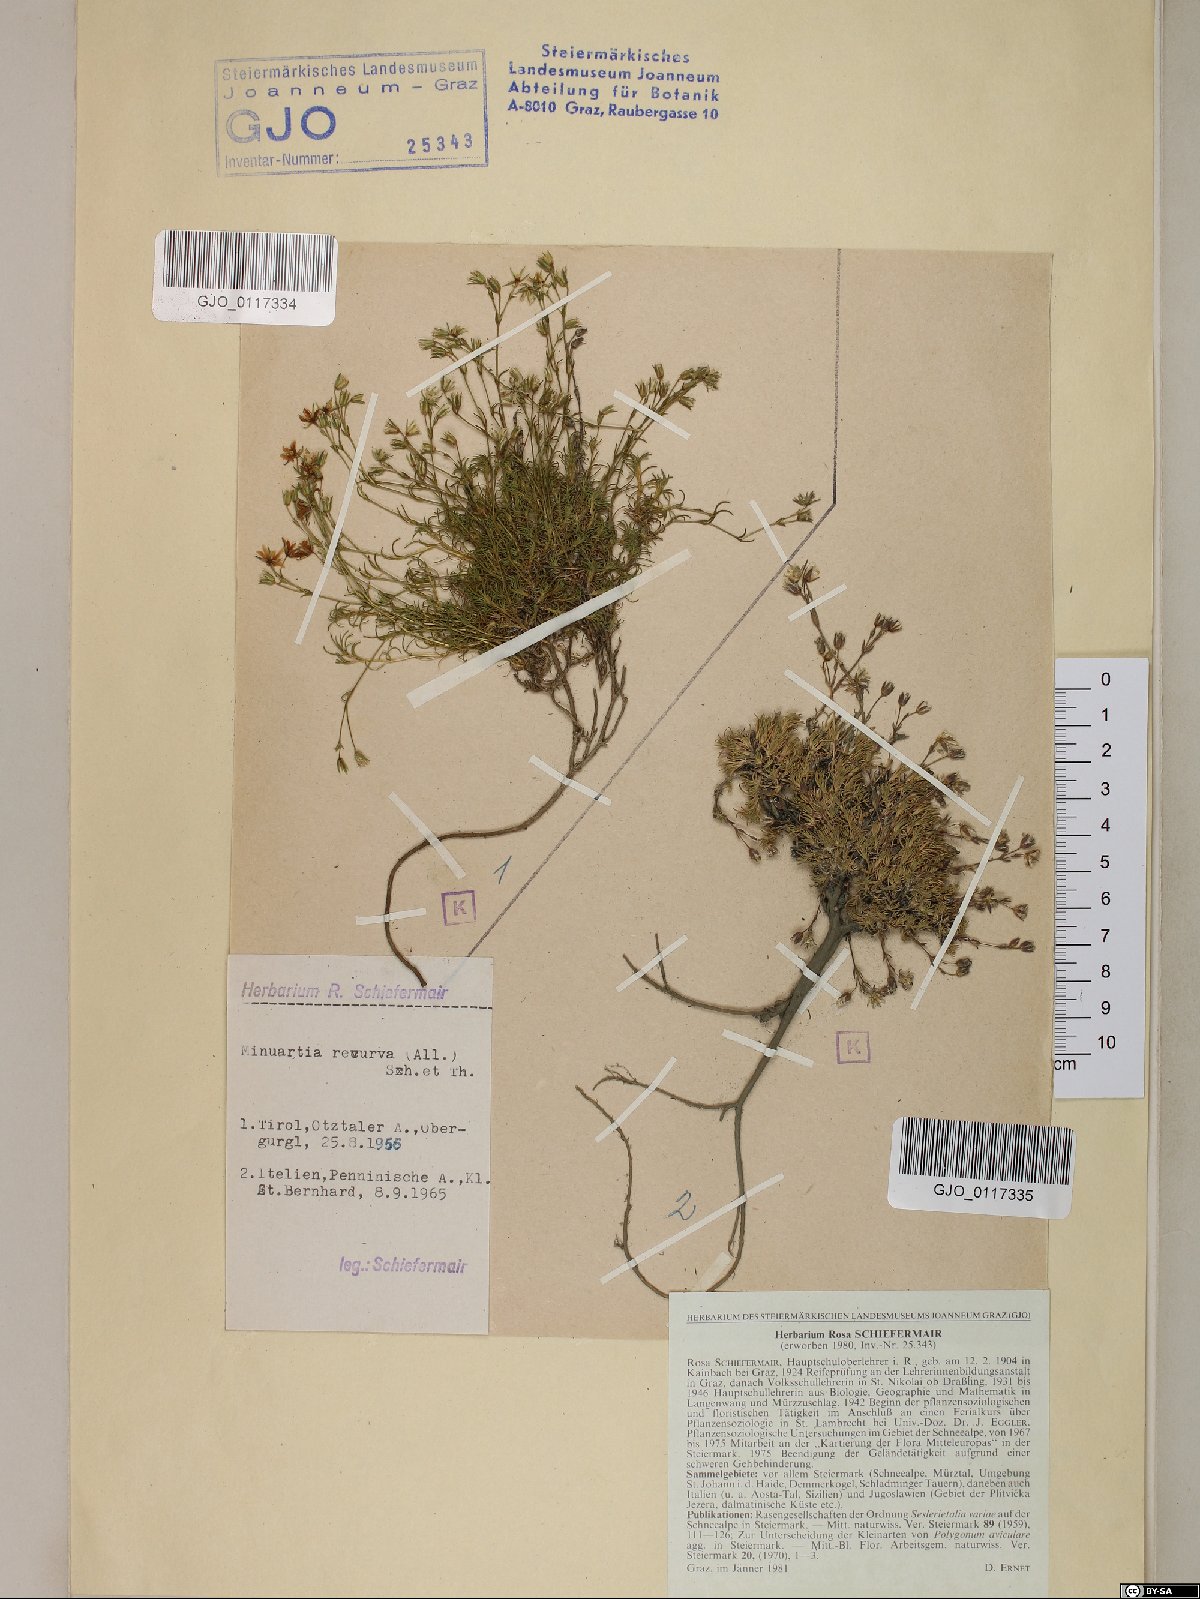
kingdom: Plantae
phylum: Tracheophyta
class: Magnoliopsida
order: Caryophyllales
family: Caryophyllaceae
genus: Minuartia
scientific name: Minuartia recurva
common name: Recurved sandwort
